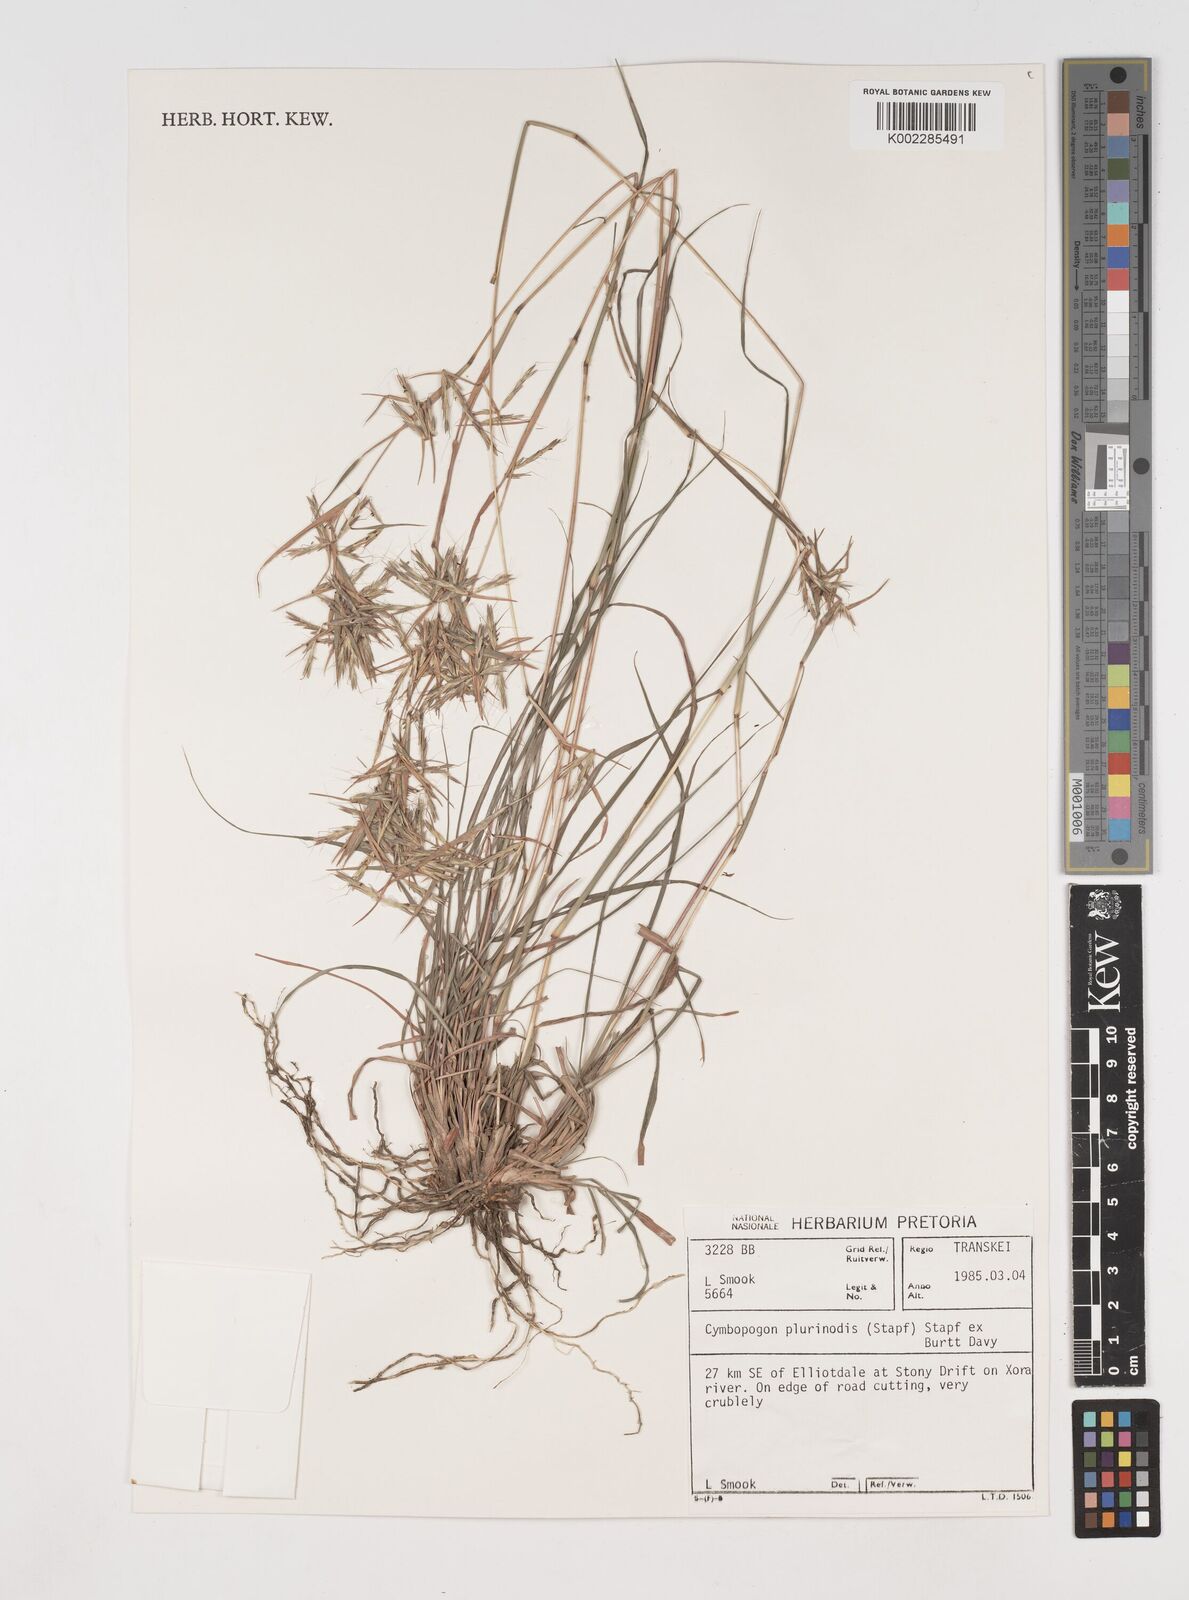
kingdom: Plantae
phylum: Tracheophyta
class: Liliopsida
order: Poales
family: Poaceae
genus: Cymbopogon
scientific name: Cymbopogon pospischilii
